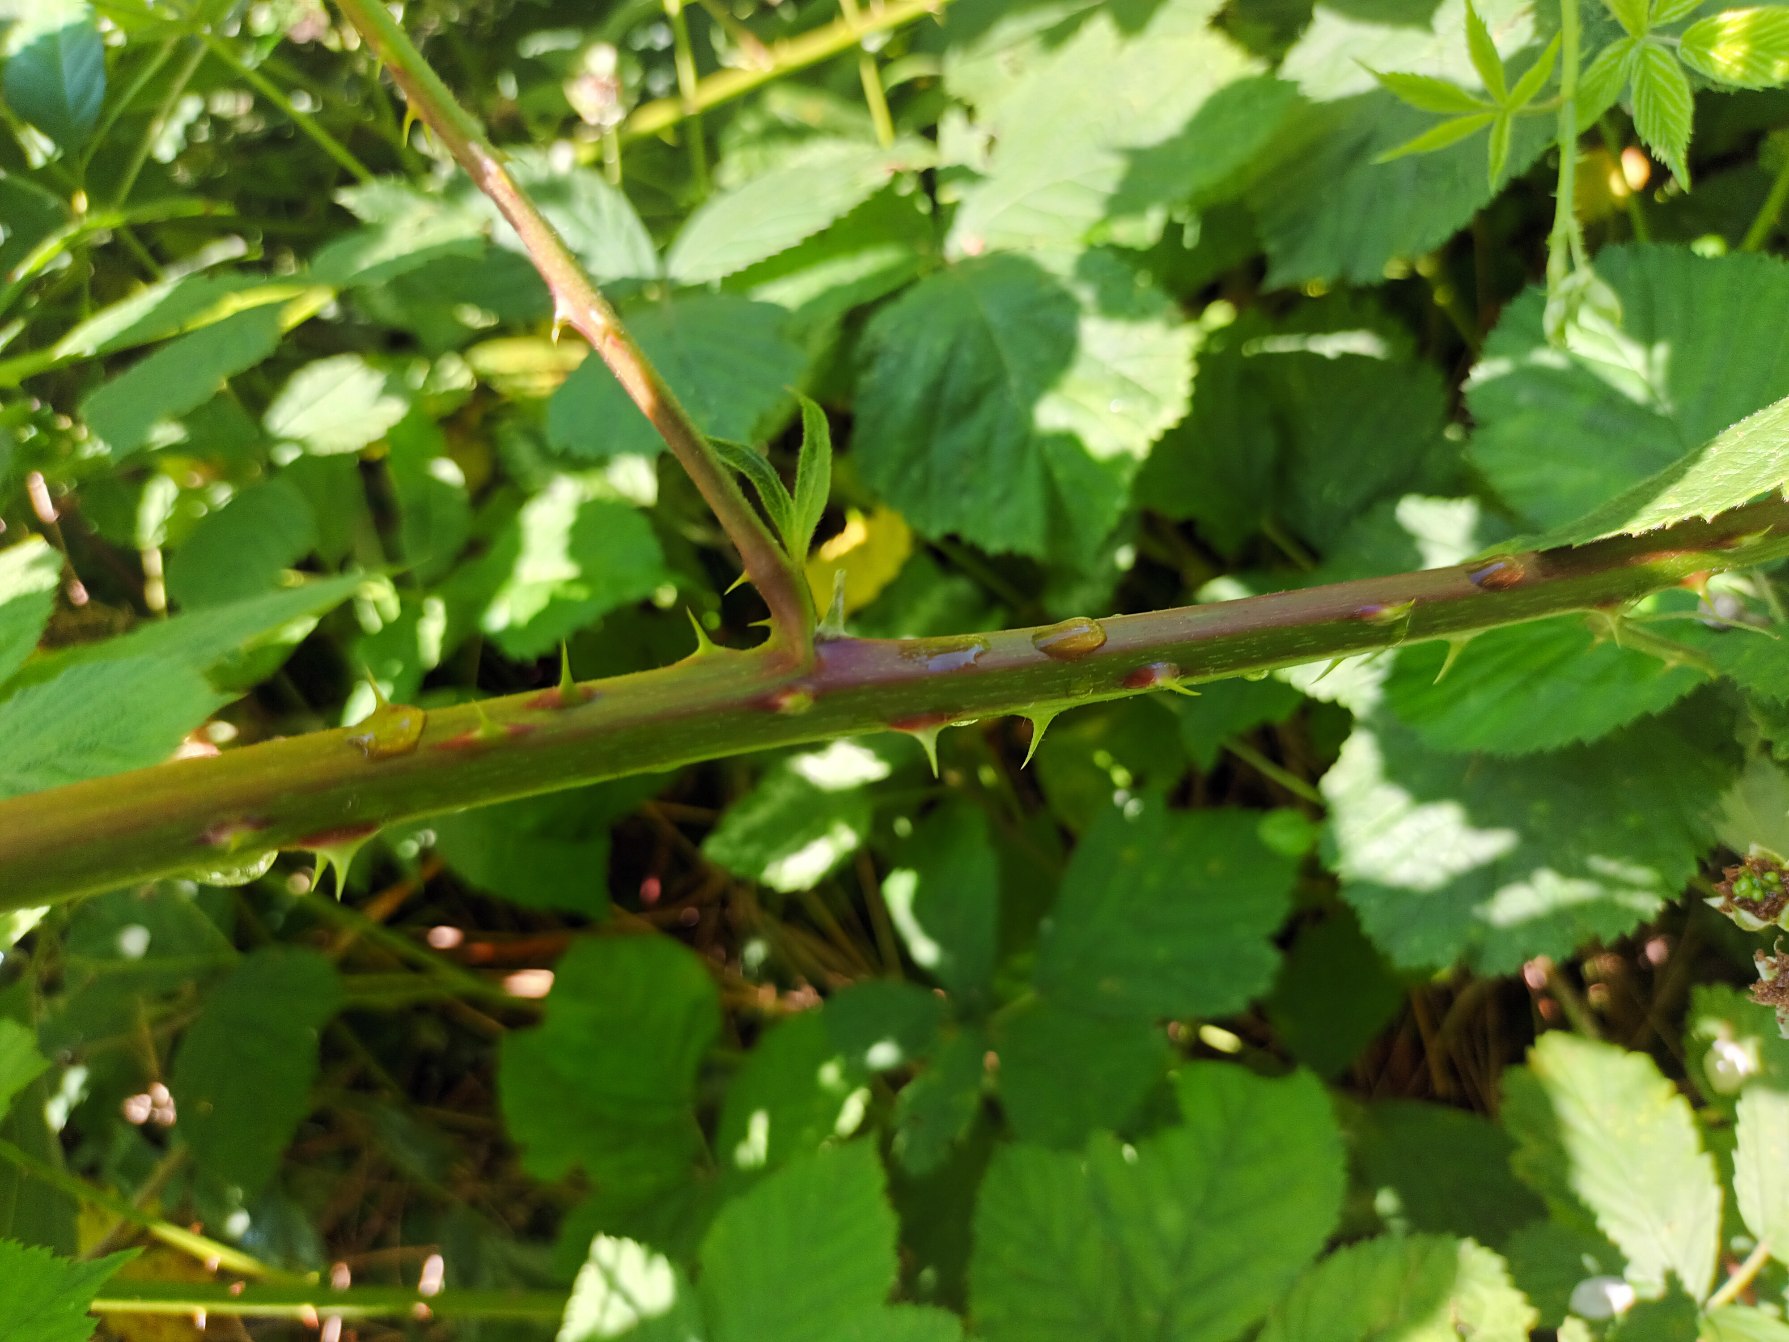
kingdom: Plantae
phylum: Tracheophyta
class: Magnoliopsida
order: Rosales
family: Rosaceae
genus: Rubus
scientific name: Rubus
